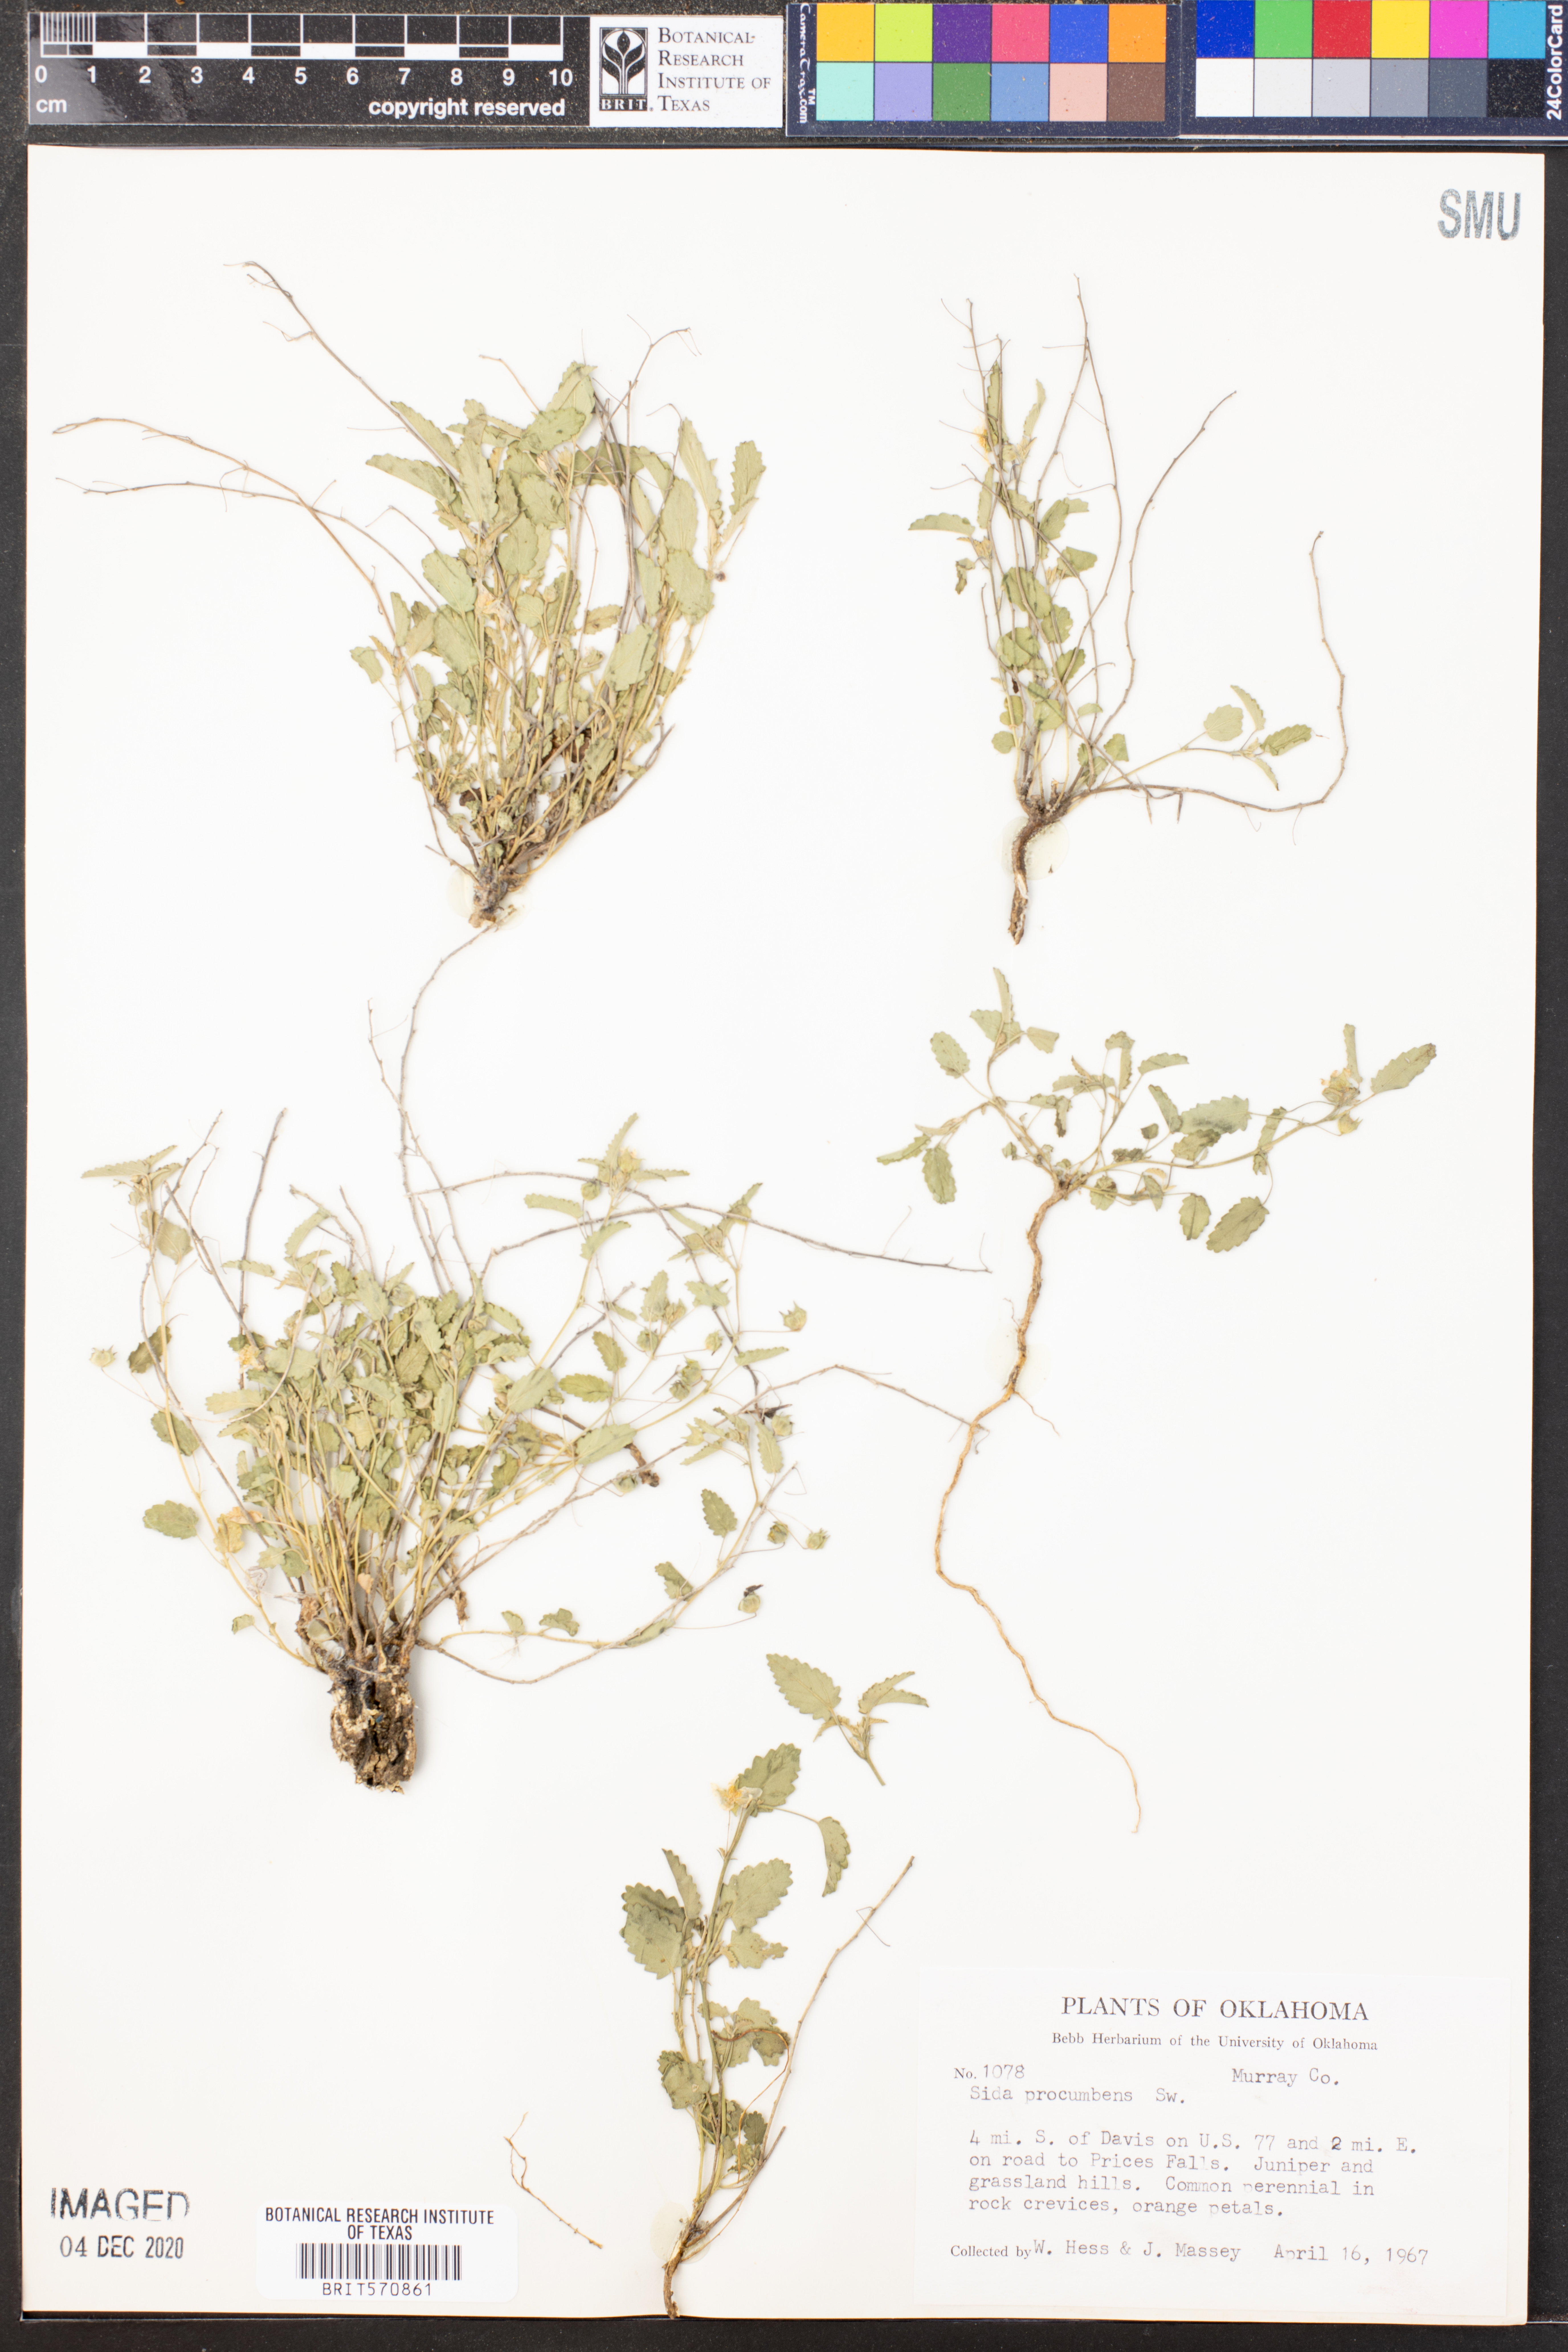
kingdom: Plantae
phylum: Tracheophyta
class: Magnoliopsida
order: Malvales
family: Malvaceae
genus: Sida
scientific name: Sida abutilifolia
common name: Spreading fanpetals
